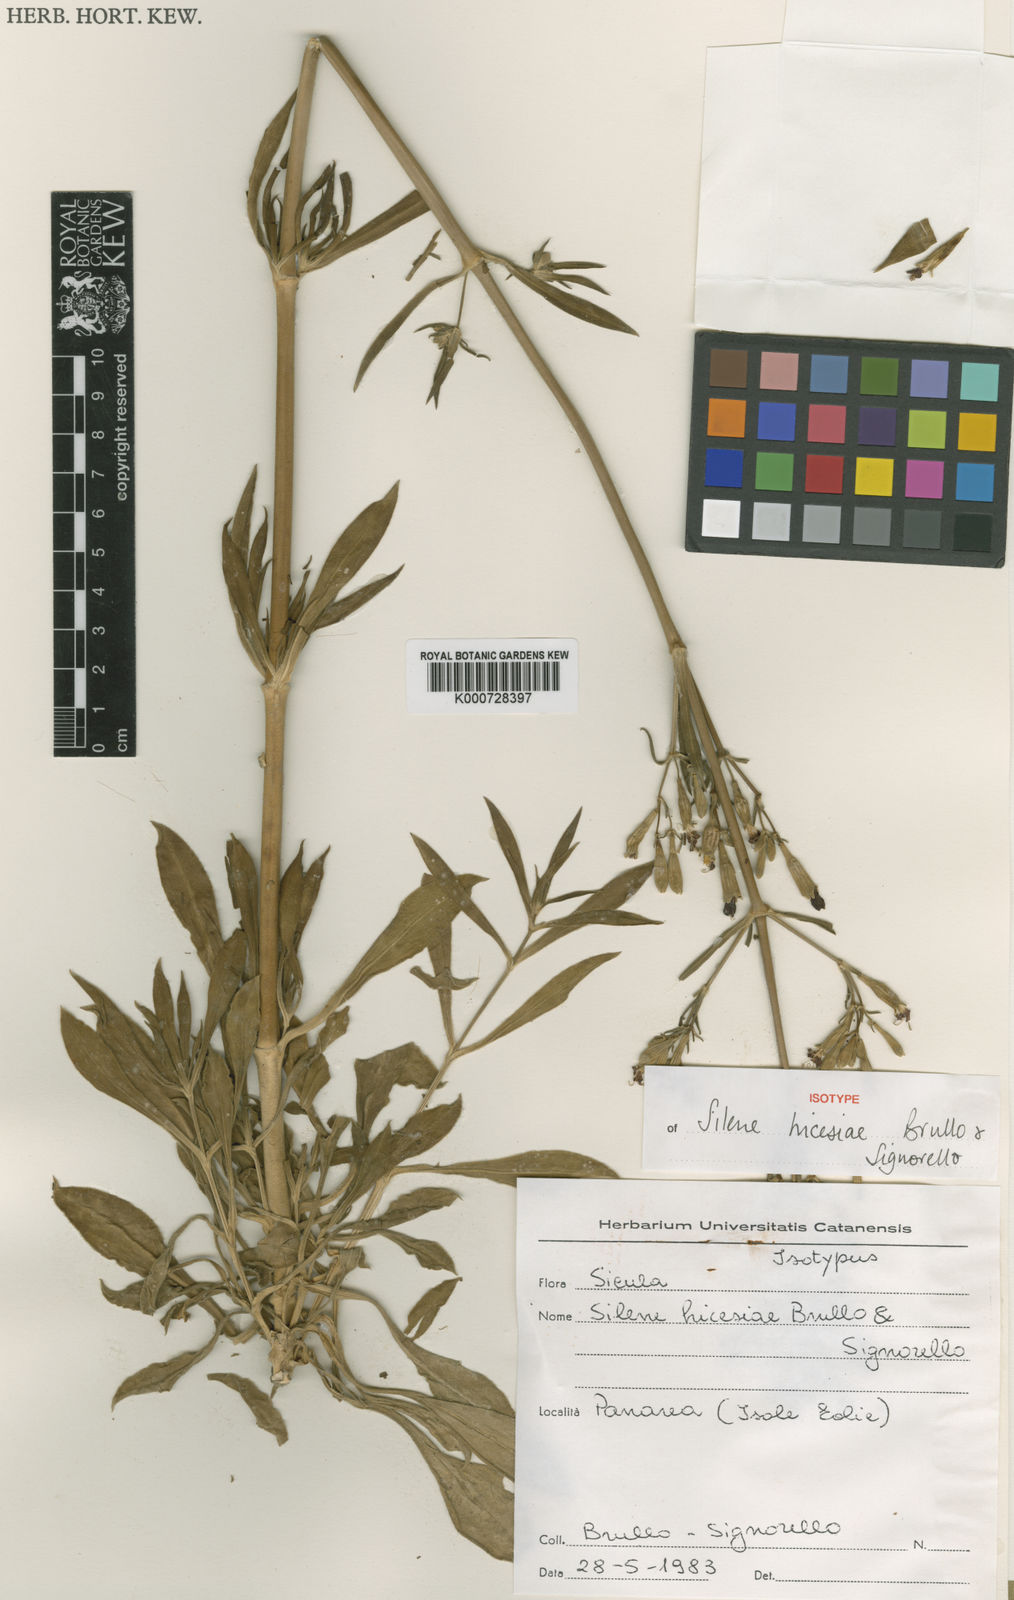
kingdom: Plantae
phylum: Tracheophyta
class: Magnoliopsida
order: Caryophyllales
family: Caryophyllaceae
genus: Silene
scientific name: Silene hicesiae
